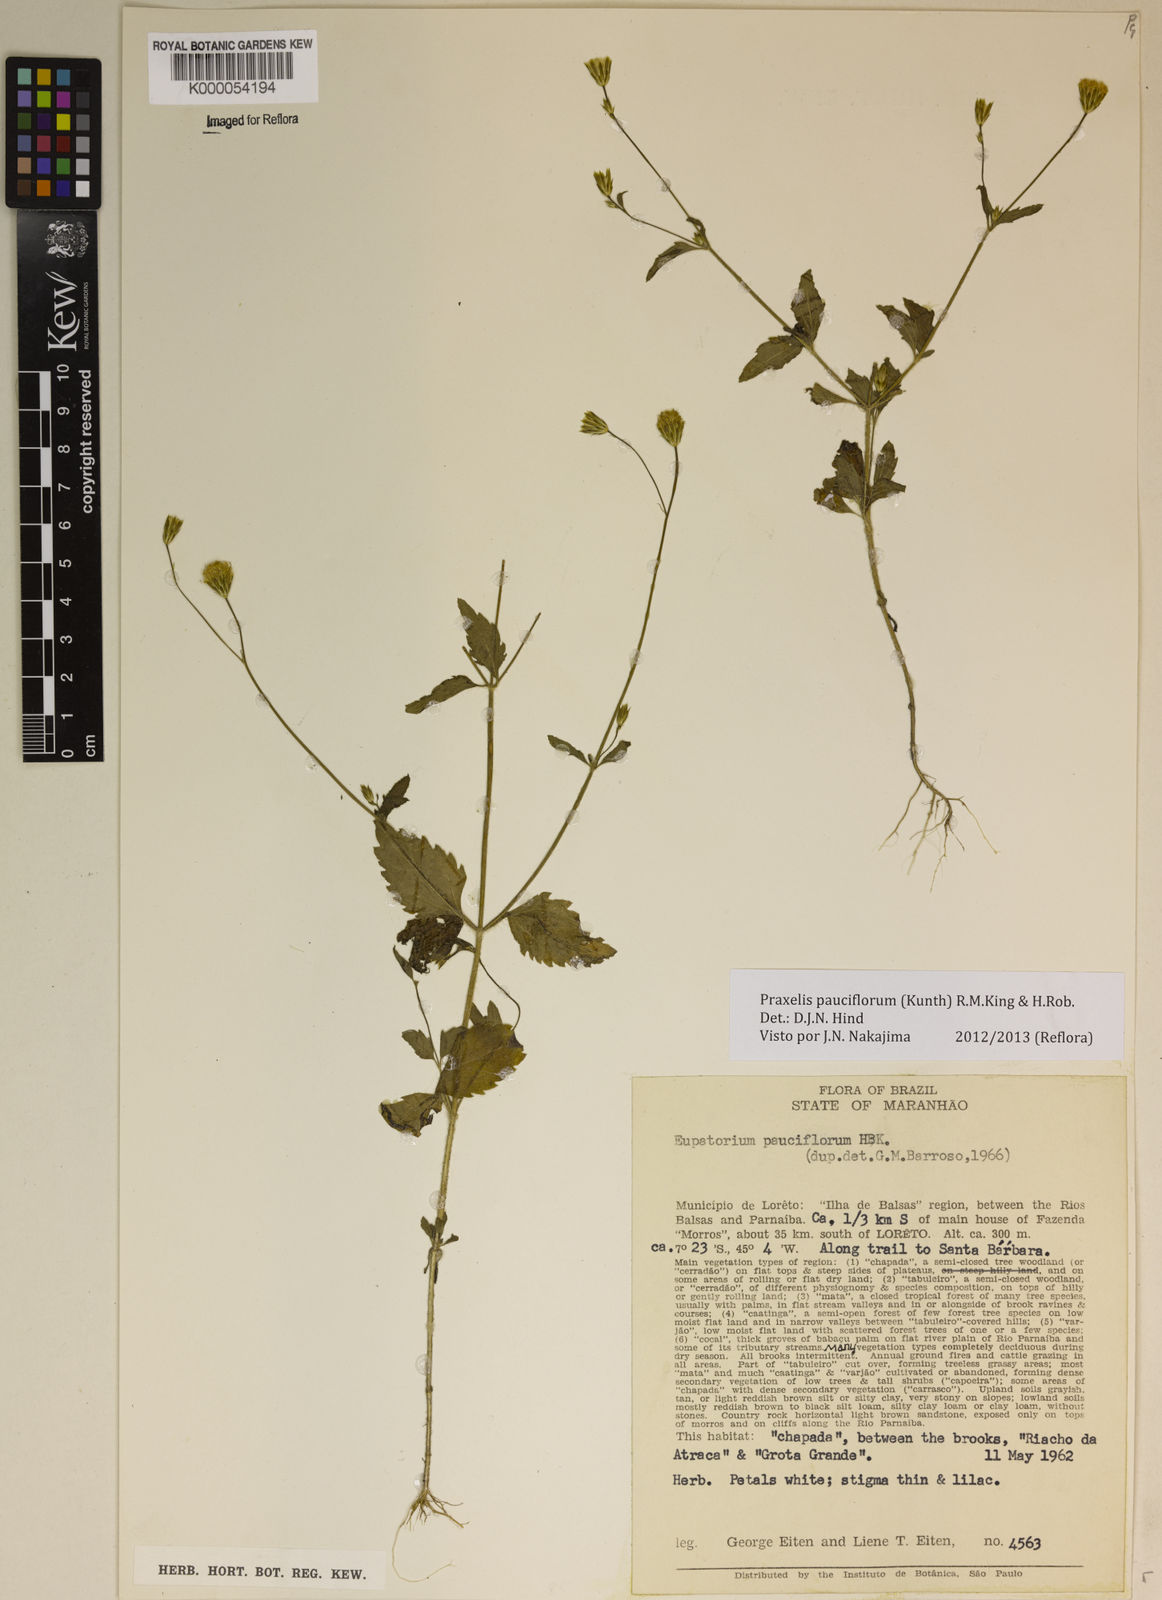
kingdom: Plantae
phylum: Tracheophyta
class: Magnoliopsida
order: Asterales
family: Asteraceae
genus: Praxelis
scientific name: Praxelis diffusa
